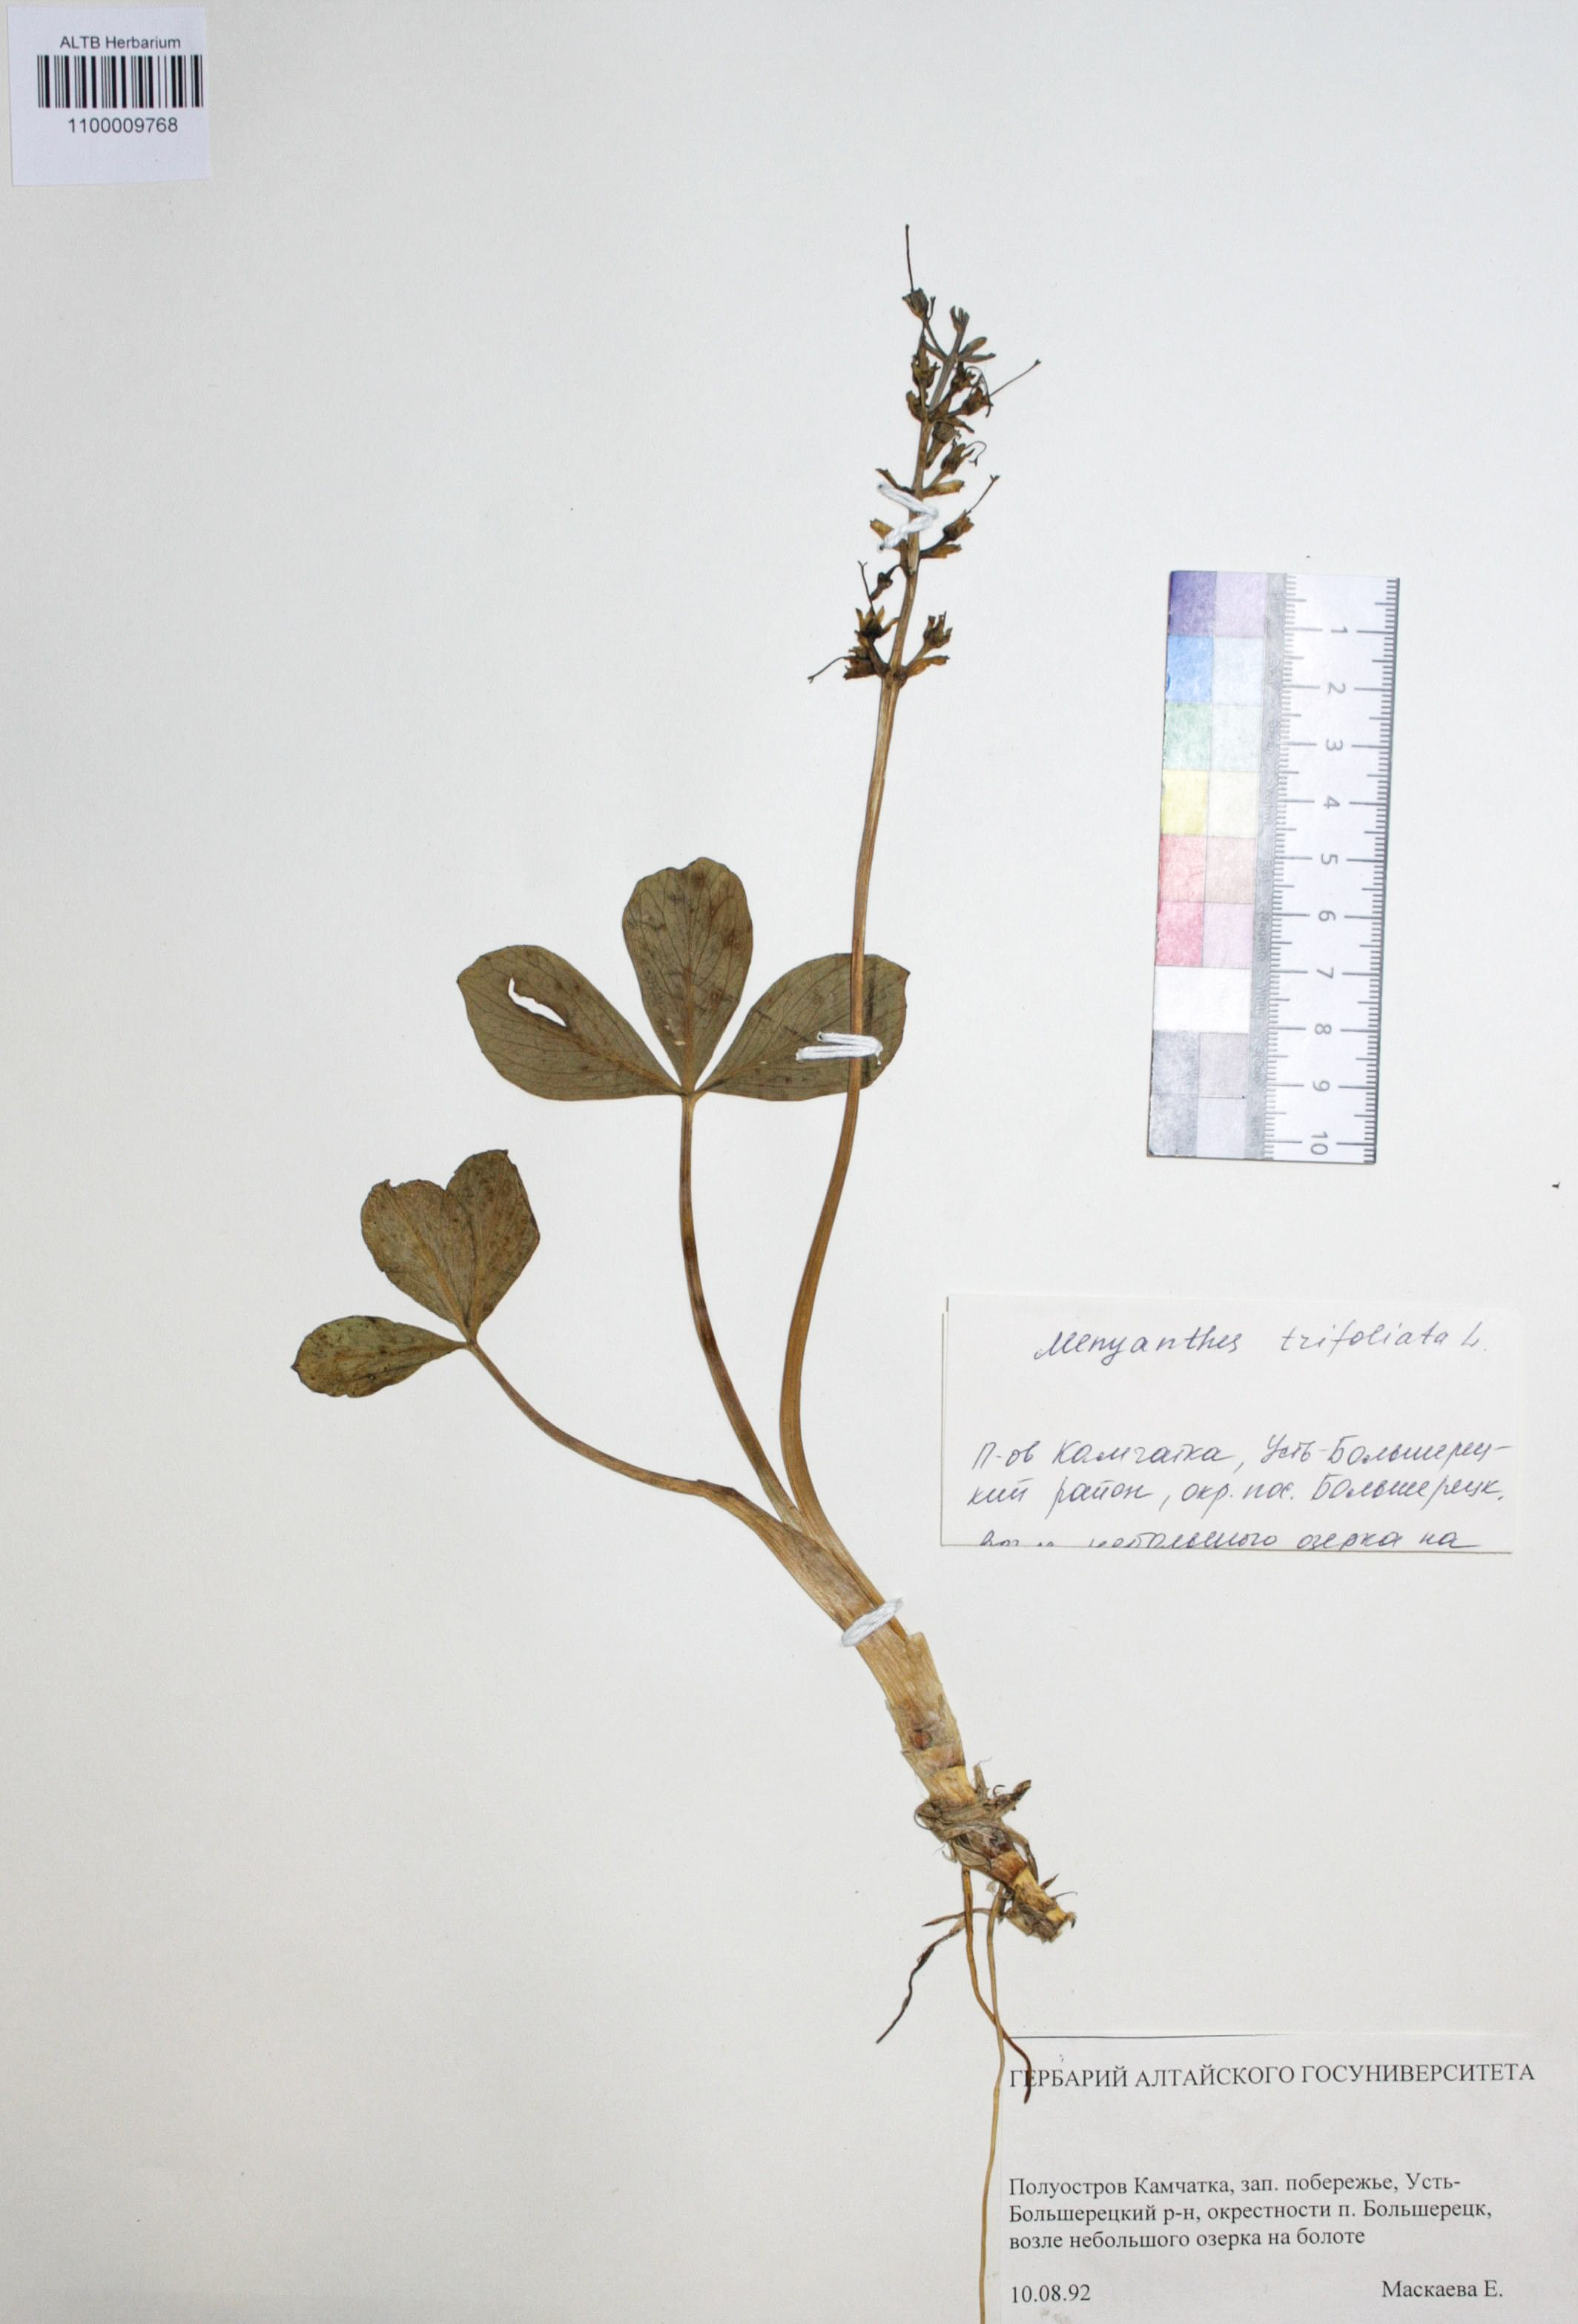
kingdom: Plantae
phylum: Tracheophyta
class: Magnoliopsida
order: Asterales
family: Menyanthaceae
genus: Menyanthes
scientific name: Menyanthes trifoliata
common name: Bogbean
